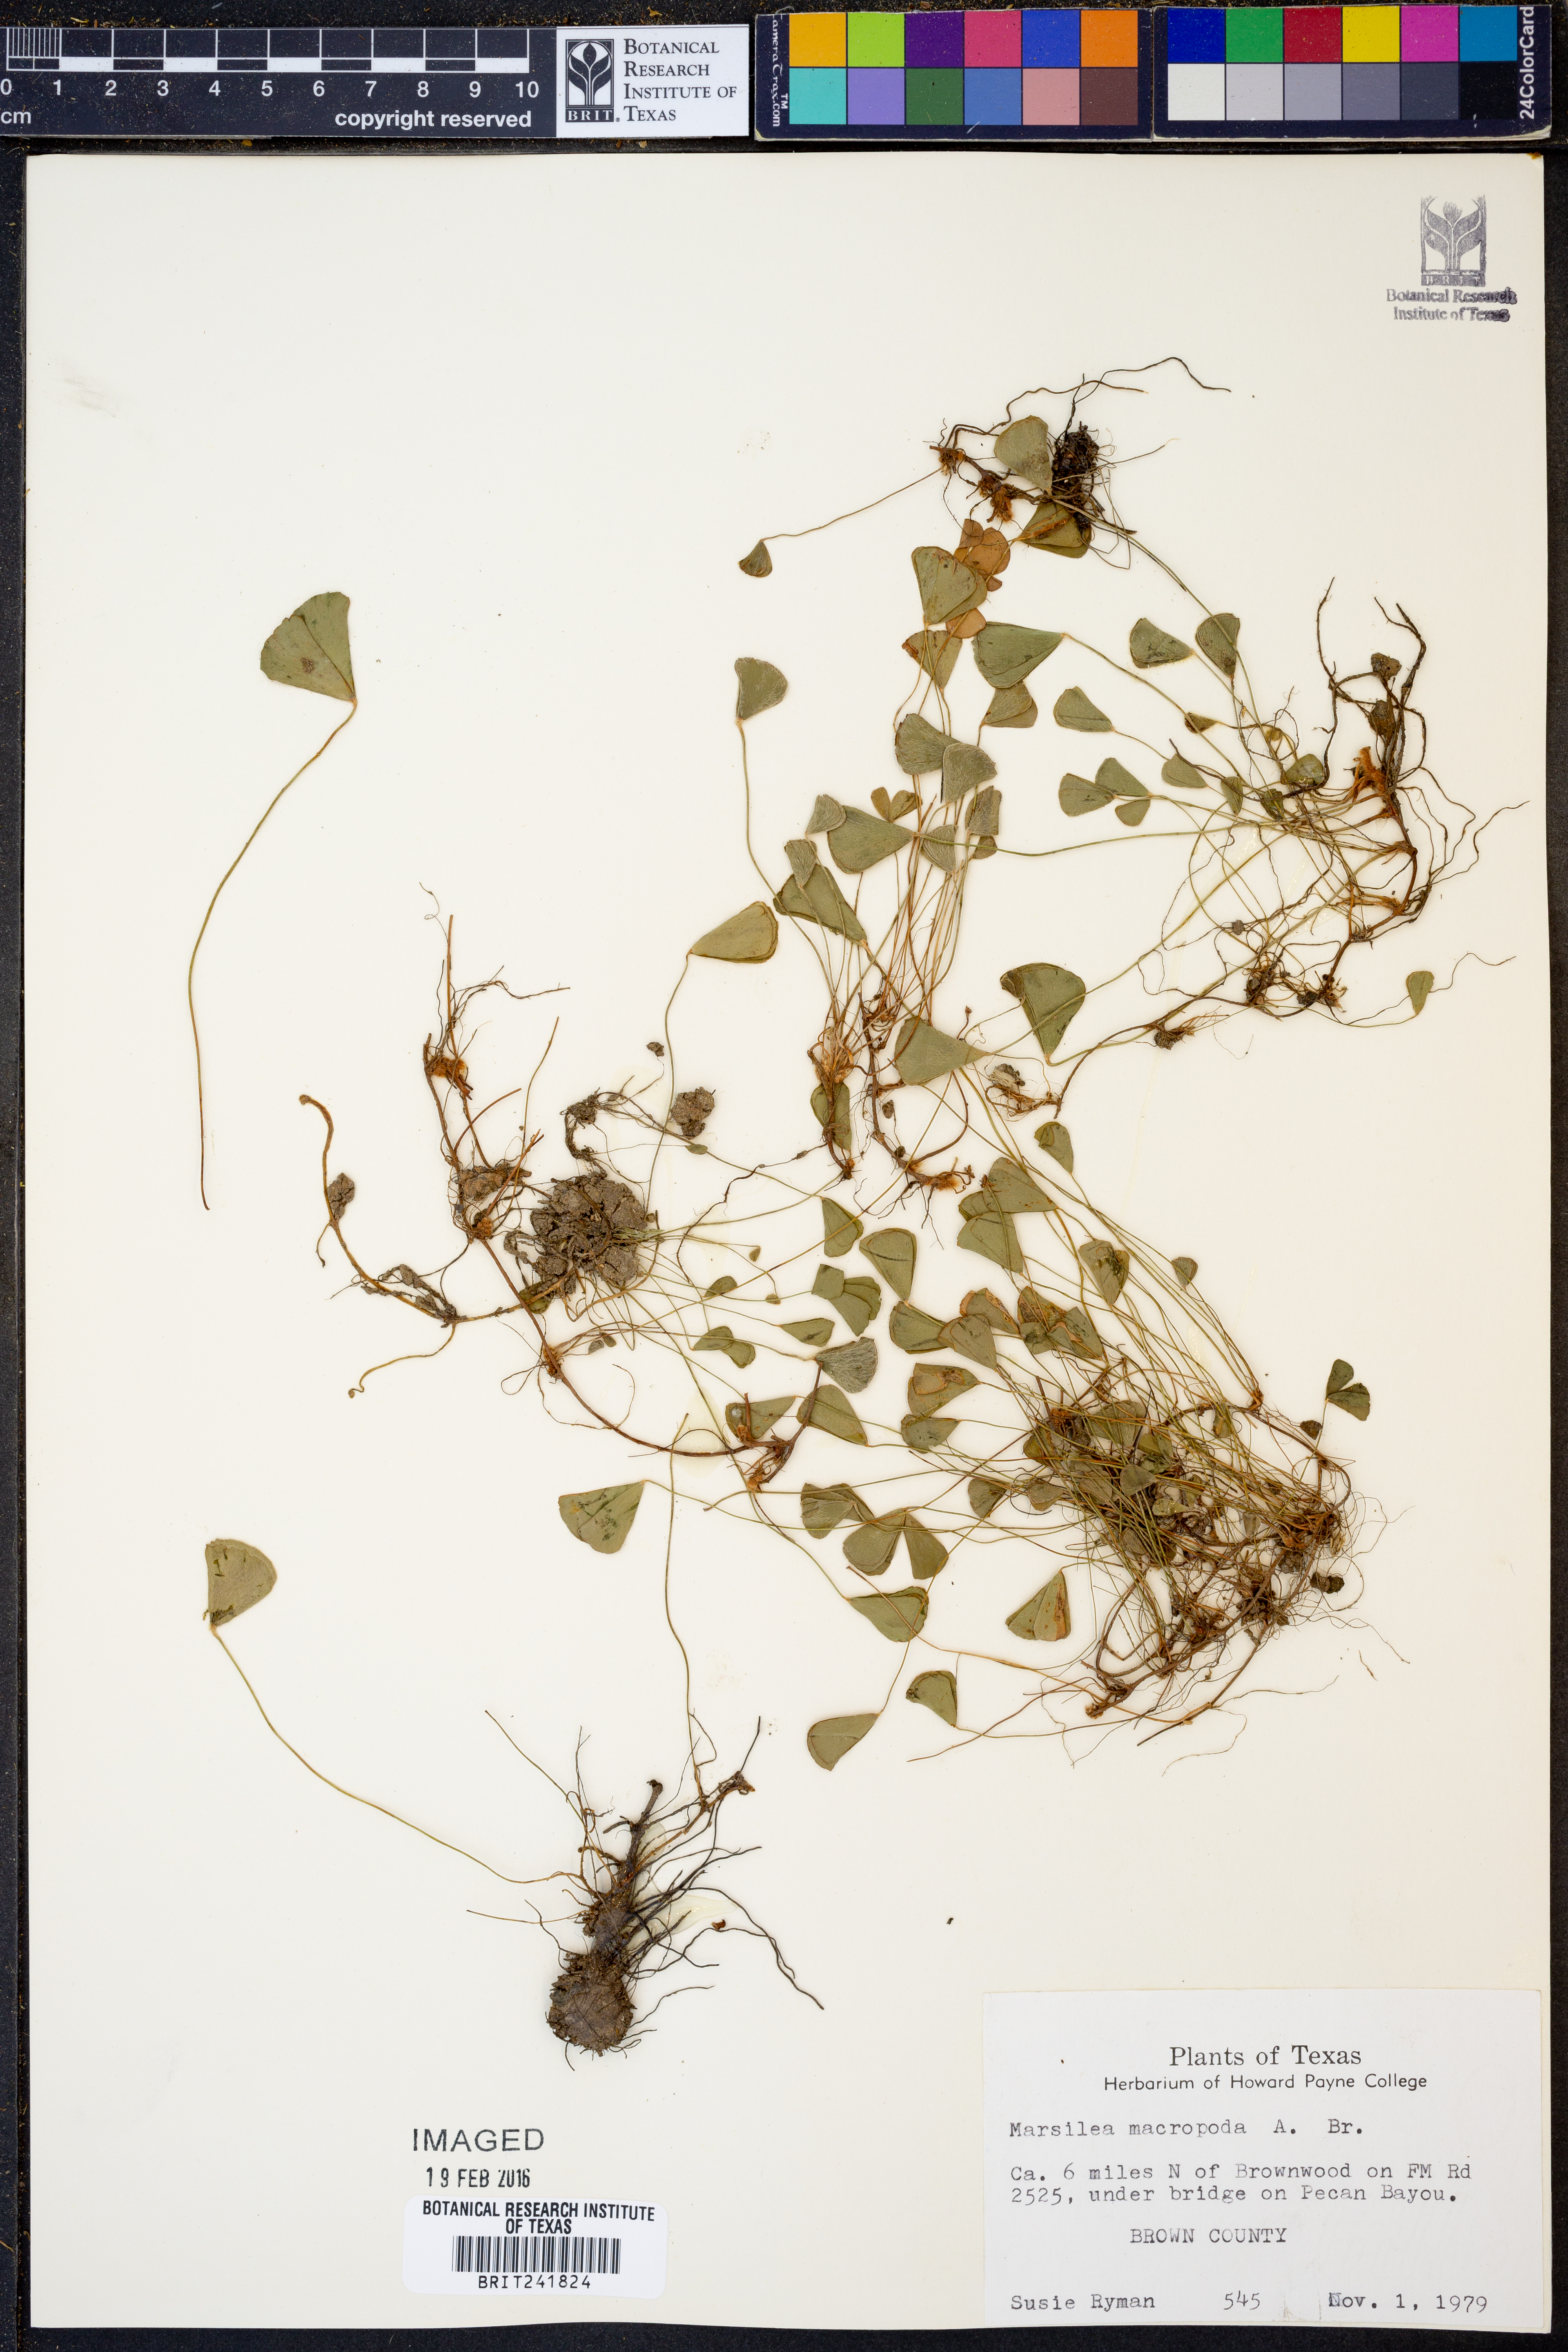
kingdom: Plantae
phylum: Tracheophyta
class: Polypodiopsida
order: Salviniales
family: Marsileaceae
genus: Marsilea
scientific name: Marsilea macropoda
